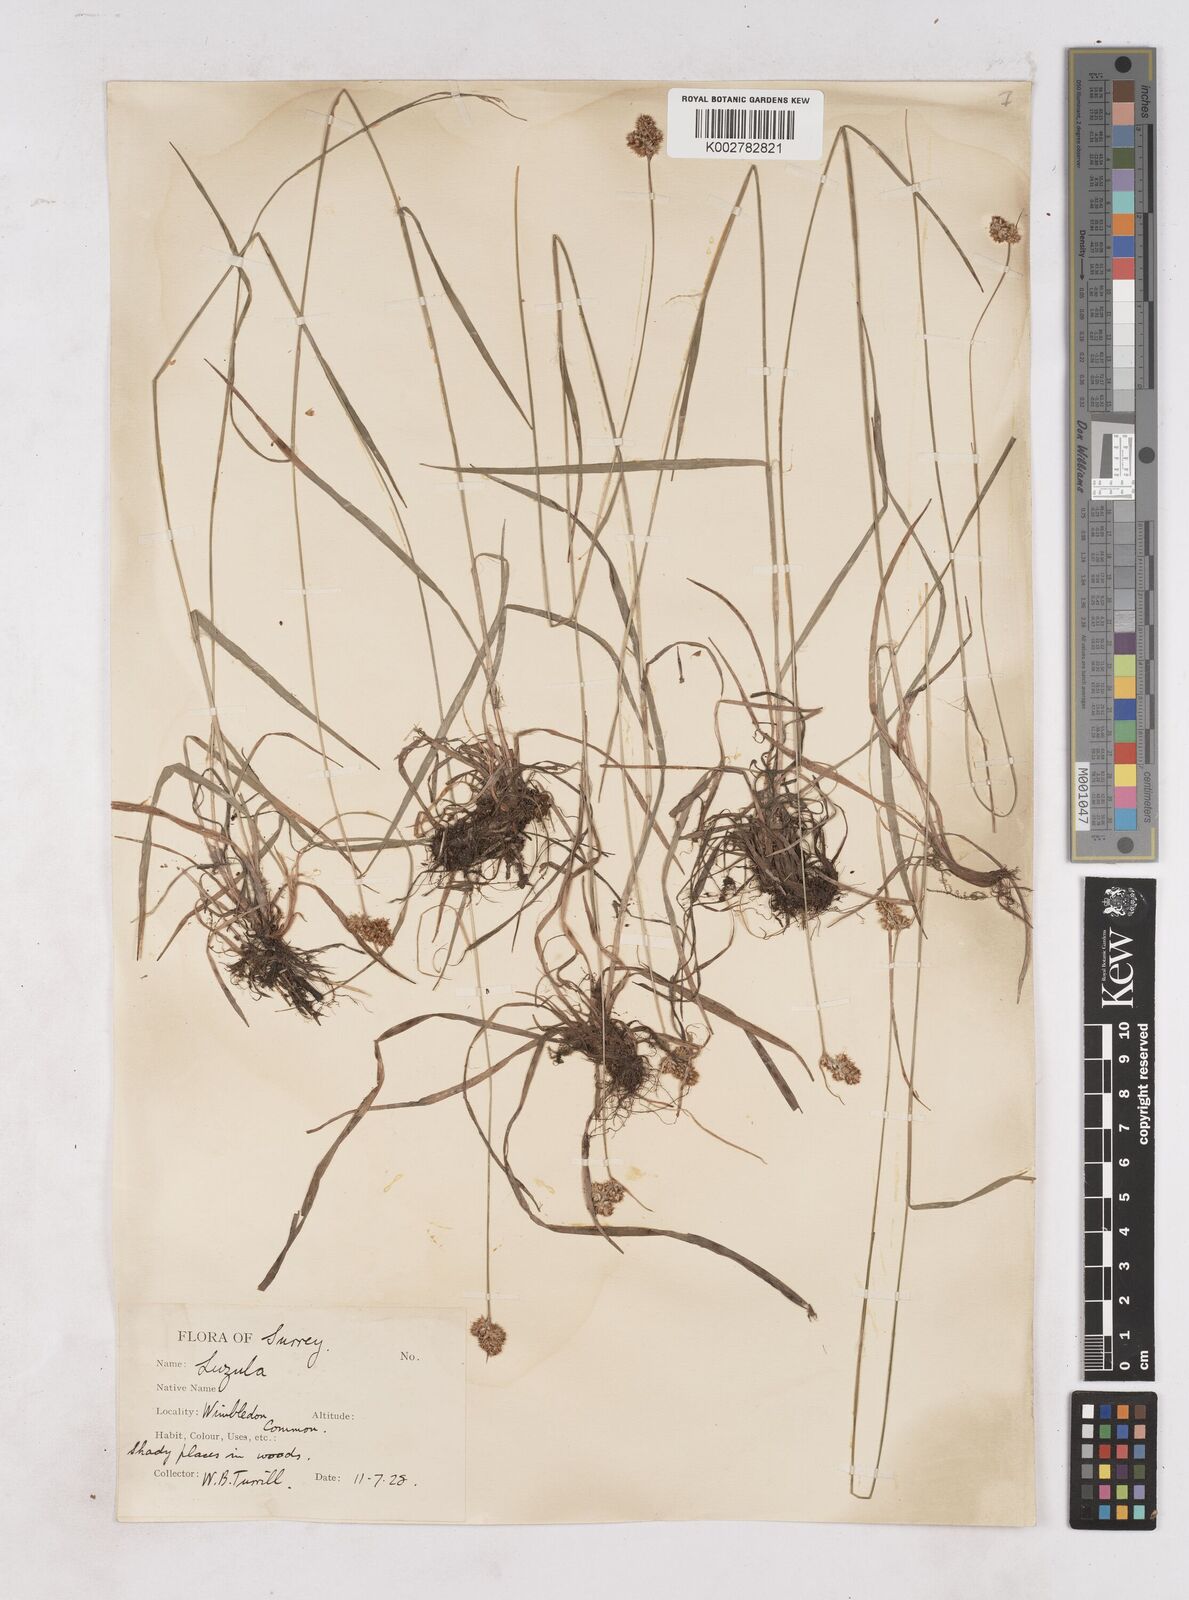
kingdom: Plantae
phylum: Tracheophyta
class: Liliopsida
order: Poales
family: Juncaceae
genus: Luzula
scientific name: Luzula campestris
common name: Field wood-rush
